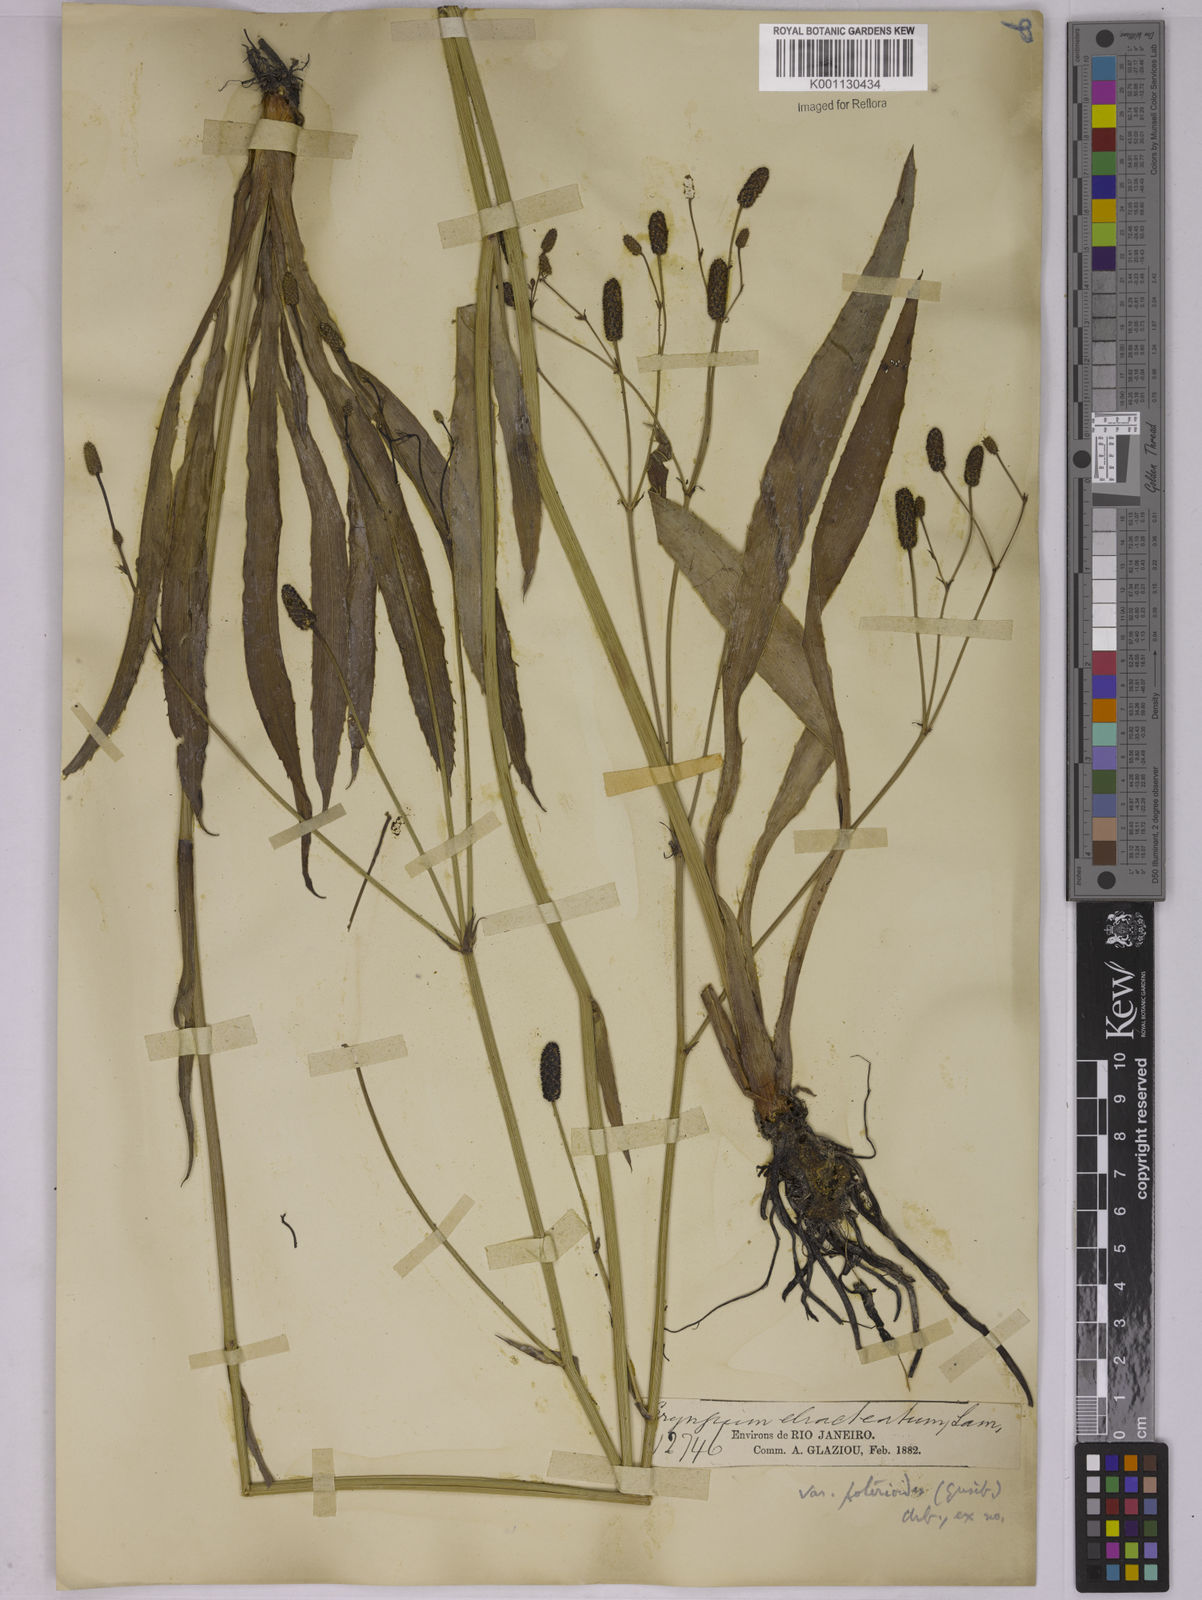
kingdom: Plantae
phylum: Tracheophyta
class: Magnoliopsida
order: Apiales
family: Apiaceae
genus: Eryngium
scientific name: Eryngium ebracteatum
